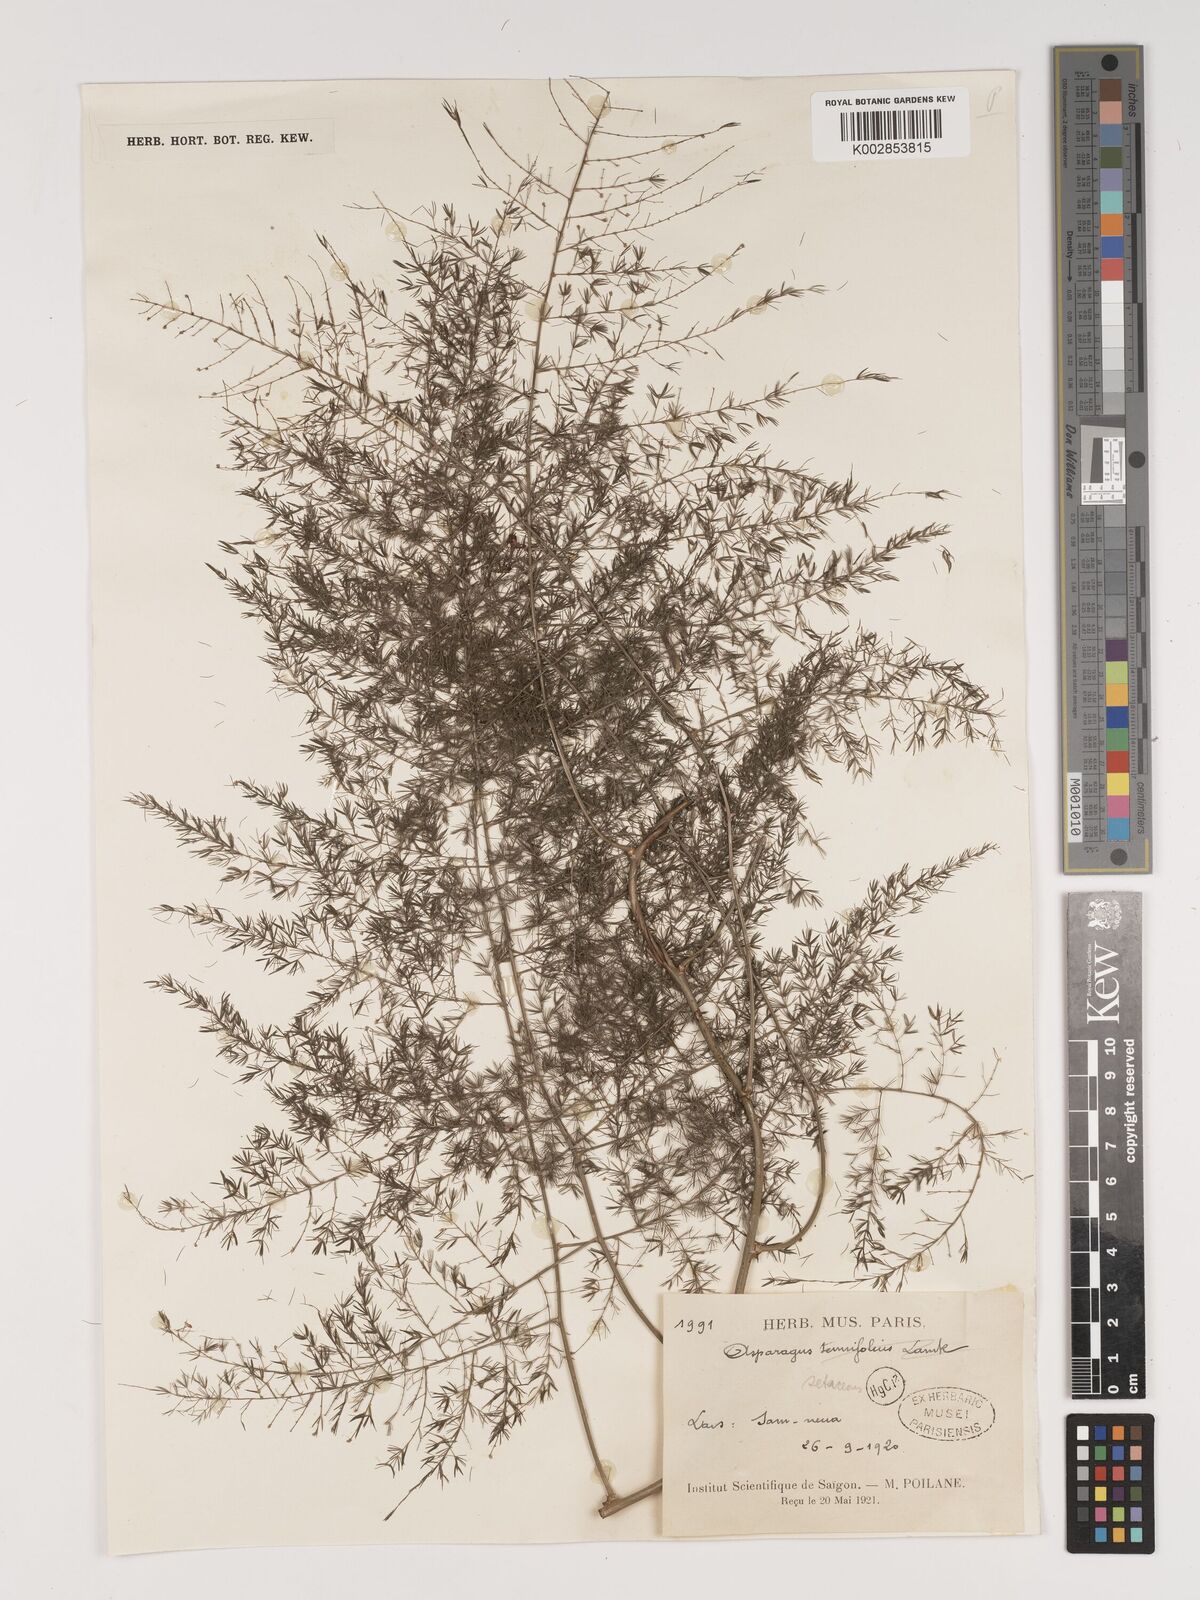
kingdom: Plantae
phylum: Tracheophyta
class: Liliopsida
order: Asparagales
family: Asparagaceae
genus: Asparagus
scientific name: Asparagus setaceus
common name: Common asparagus fern
